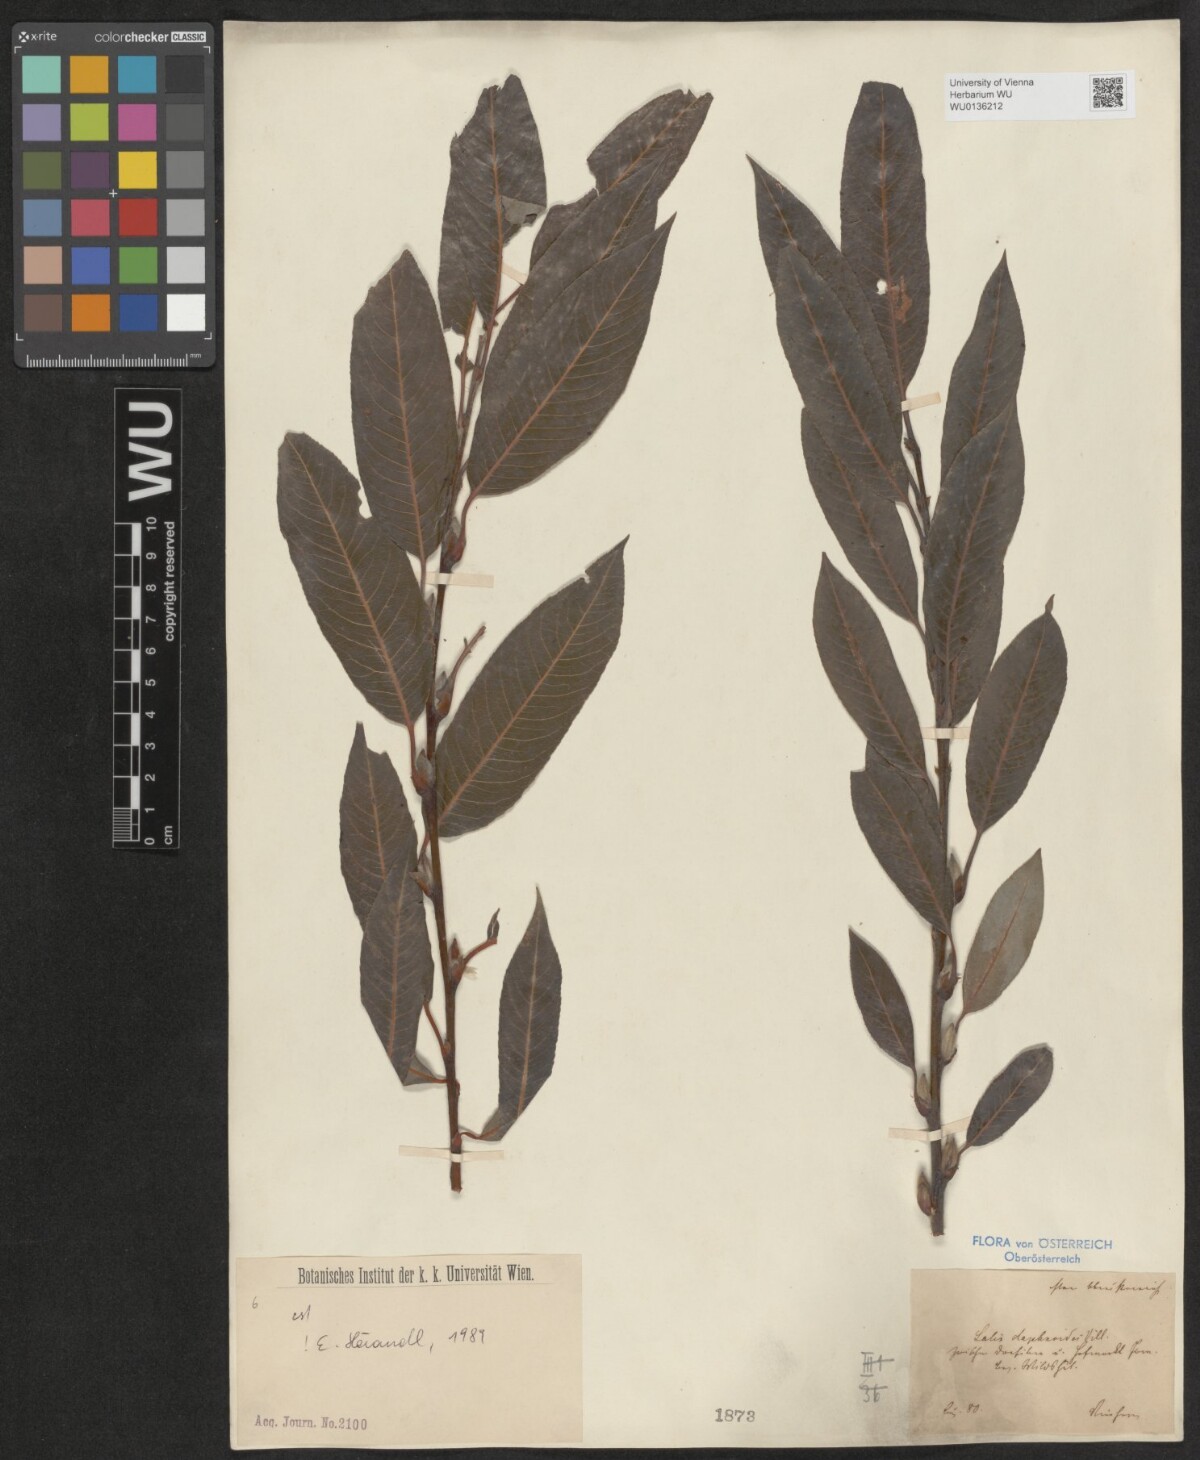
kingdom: Plantae
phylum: Tracheophyta
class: Magnoliopsida
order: Malpighiales
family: Salicaceae
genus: Salix
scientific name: Salix daphnoides
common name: European violet-willow
